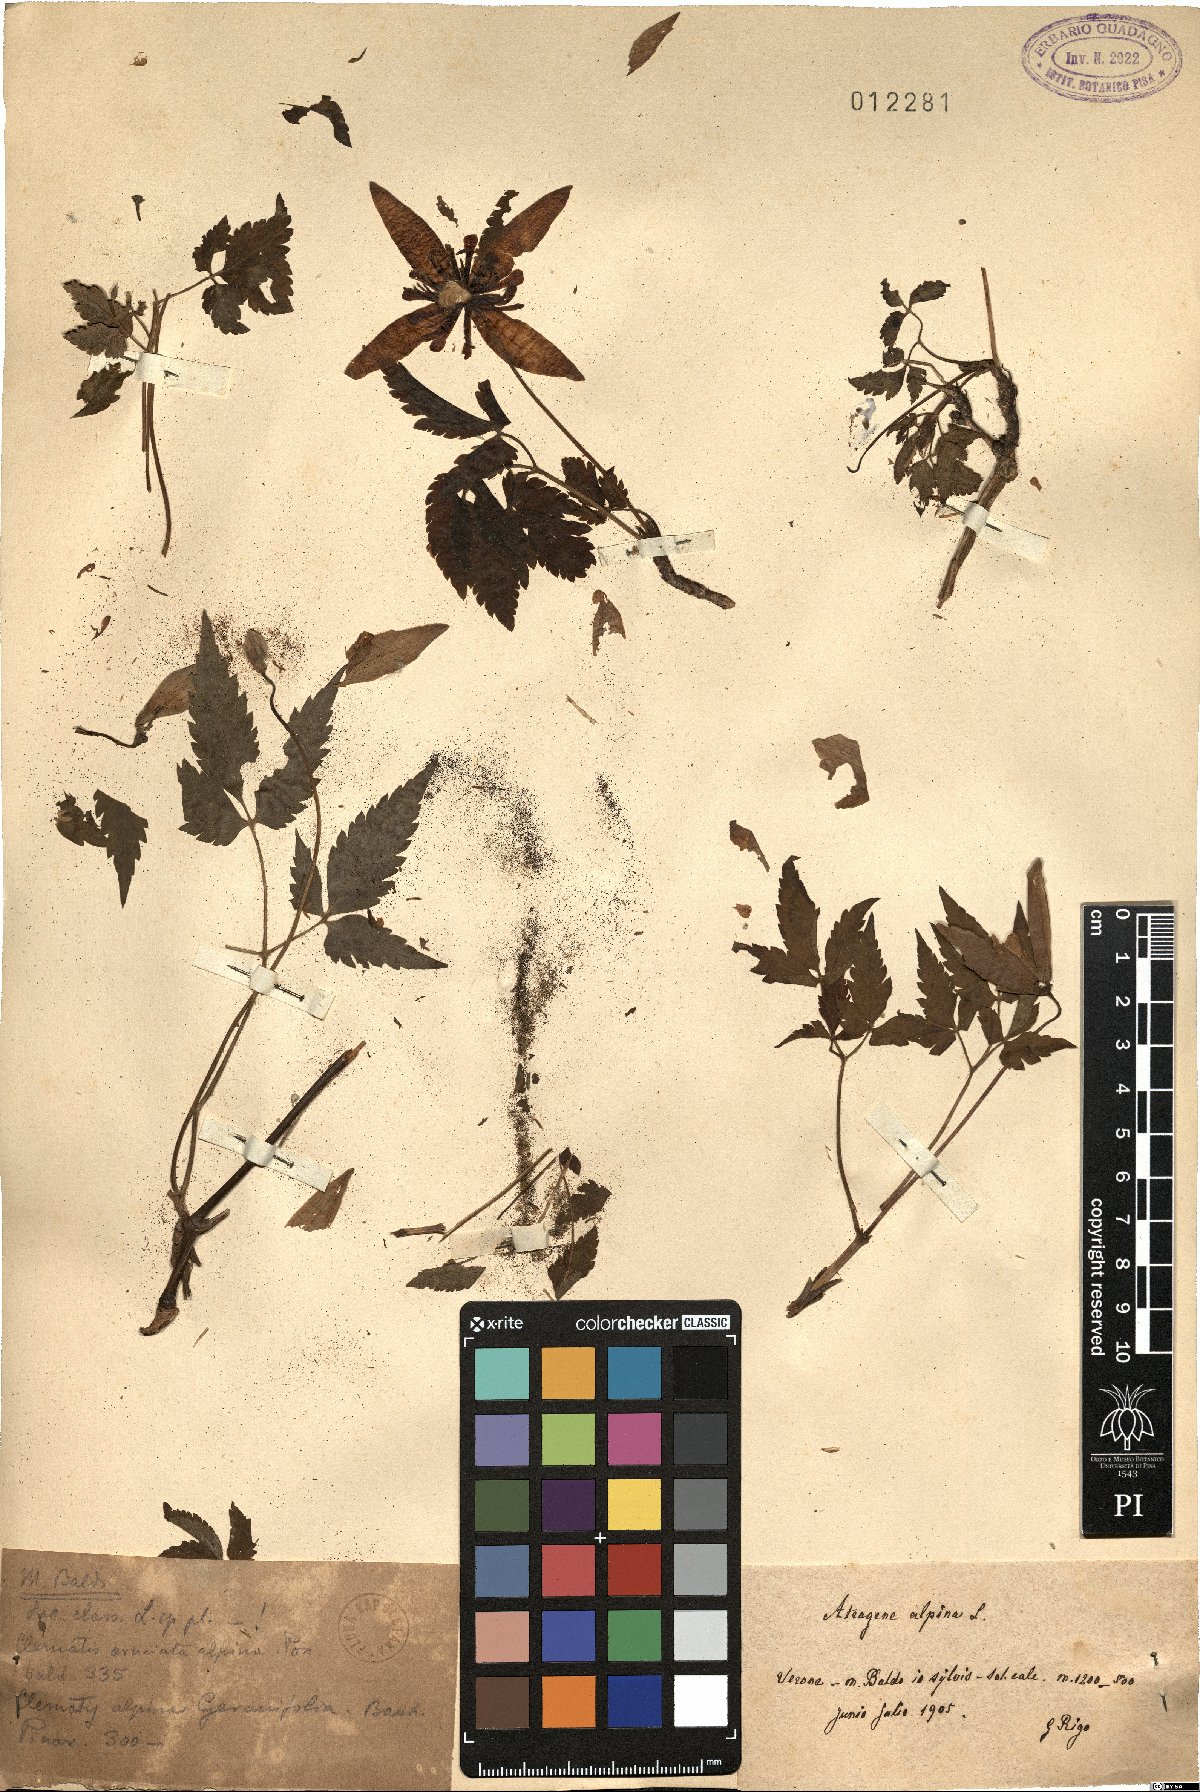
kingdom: Plantae
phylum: Tracheophyta
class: Magnoliopsida
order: Ranunculales
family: Ranunculaceae
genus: Clematis
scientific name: Clematis alpina
